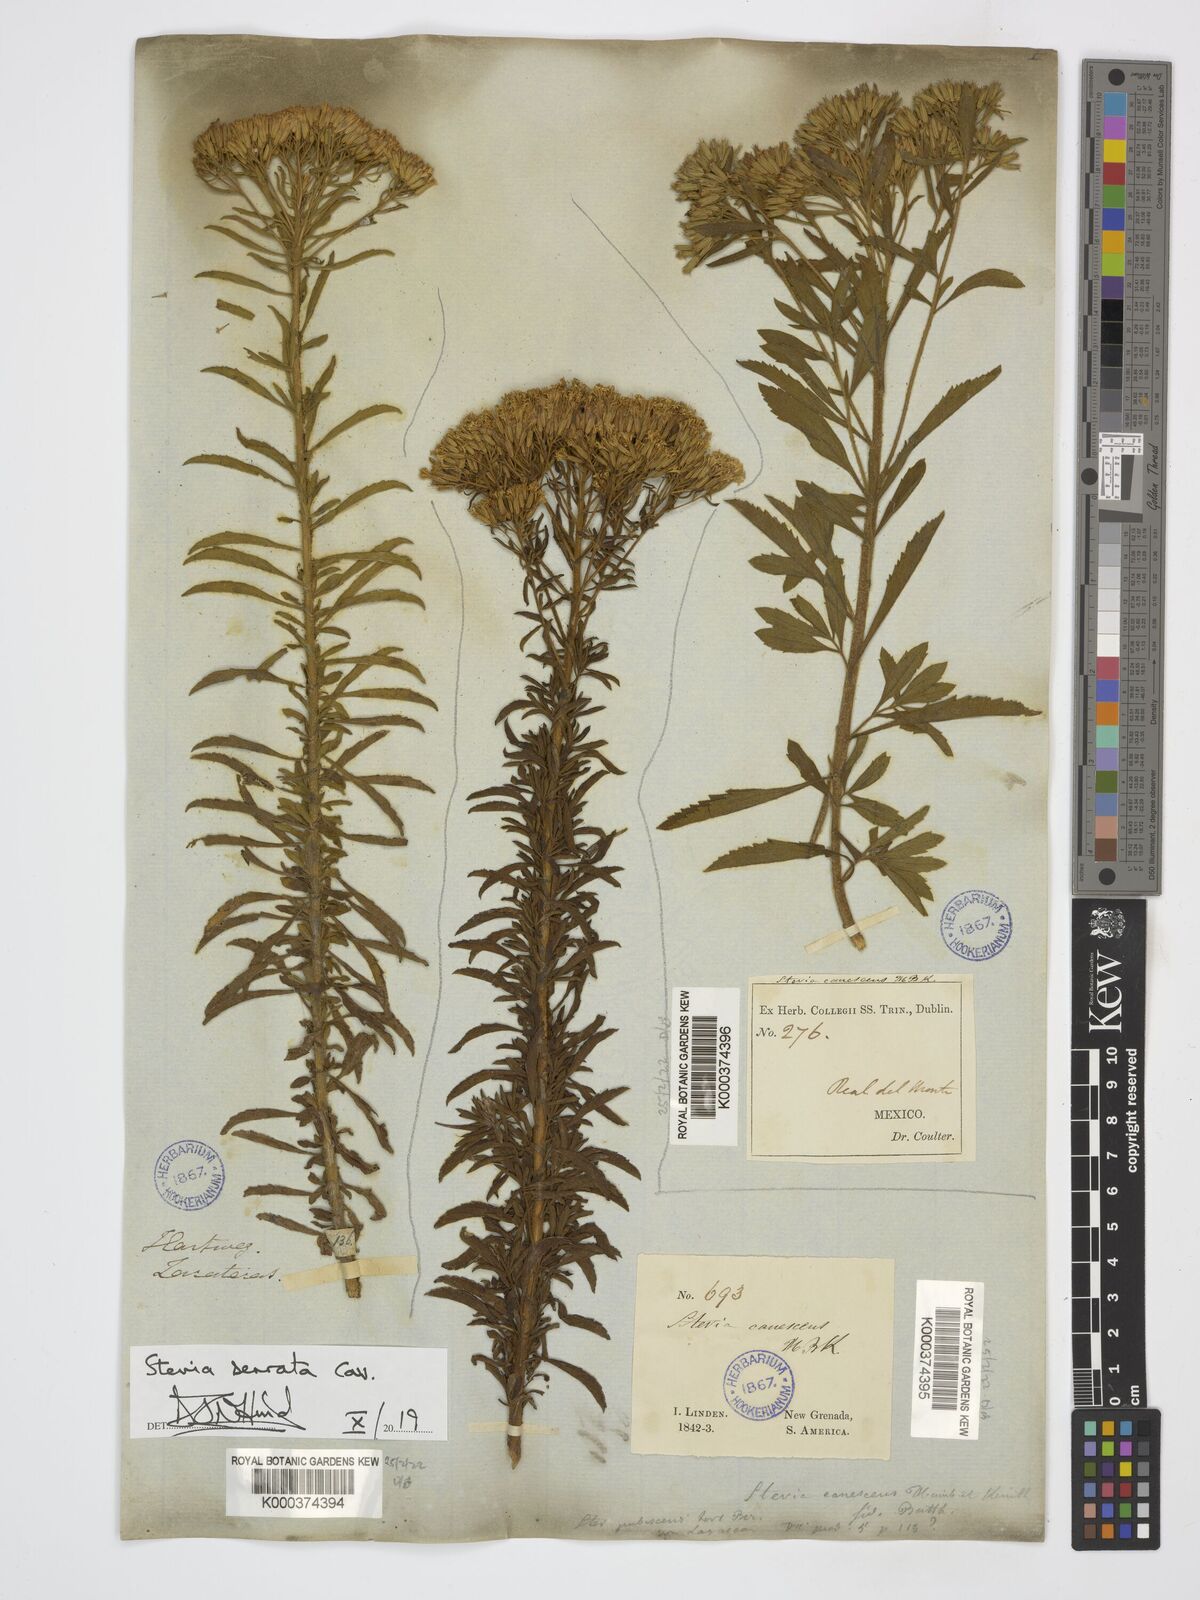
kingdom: Plantae
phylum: Tracheophyta
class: Magnoliopsida
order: Asterales
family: Asteraceae
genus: Stevia
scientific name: Stevia serrata
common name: Sawtooth candyleaf
